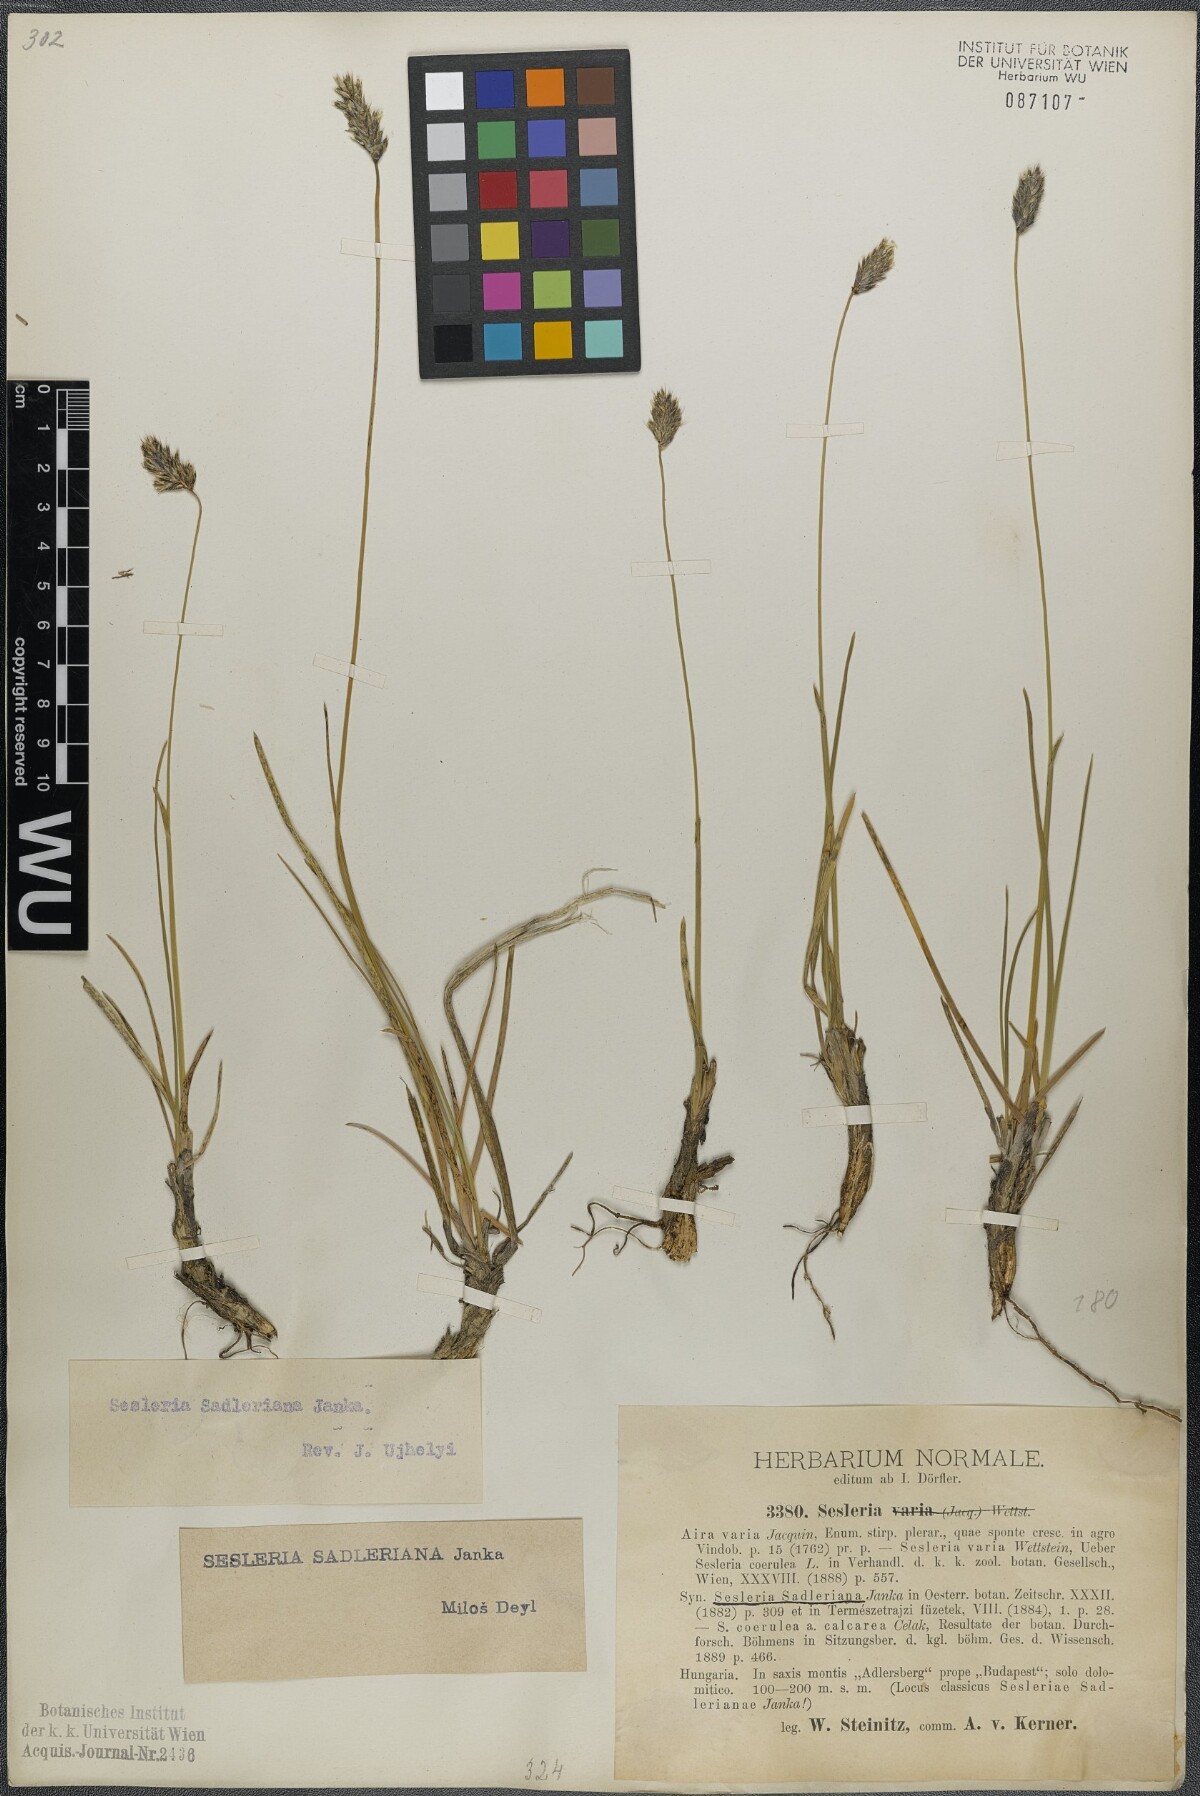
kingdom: Plantae
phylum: Tracheophyta
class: Liliopsida
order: Poales
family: Poaceae
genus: Sesleria
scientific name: Sesleria sadleriana
